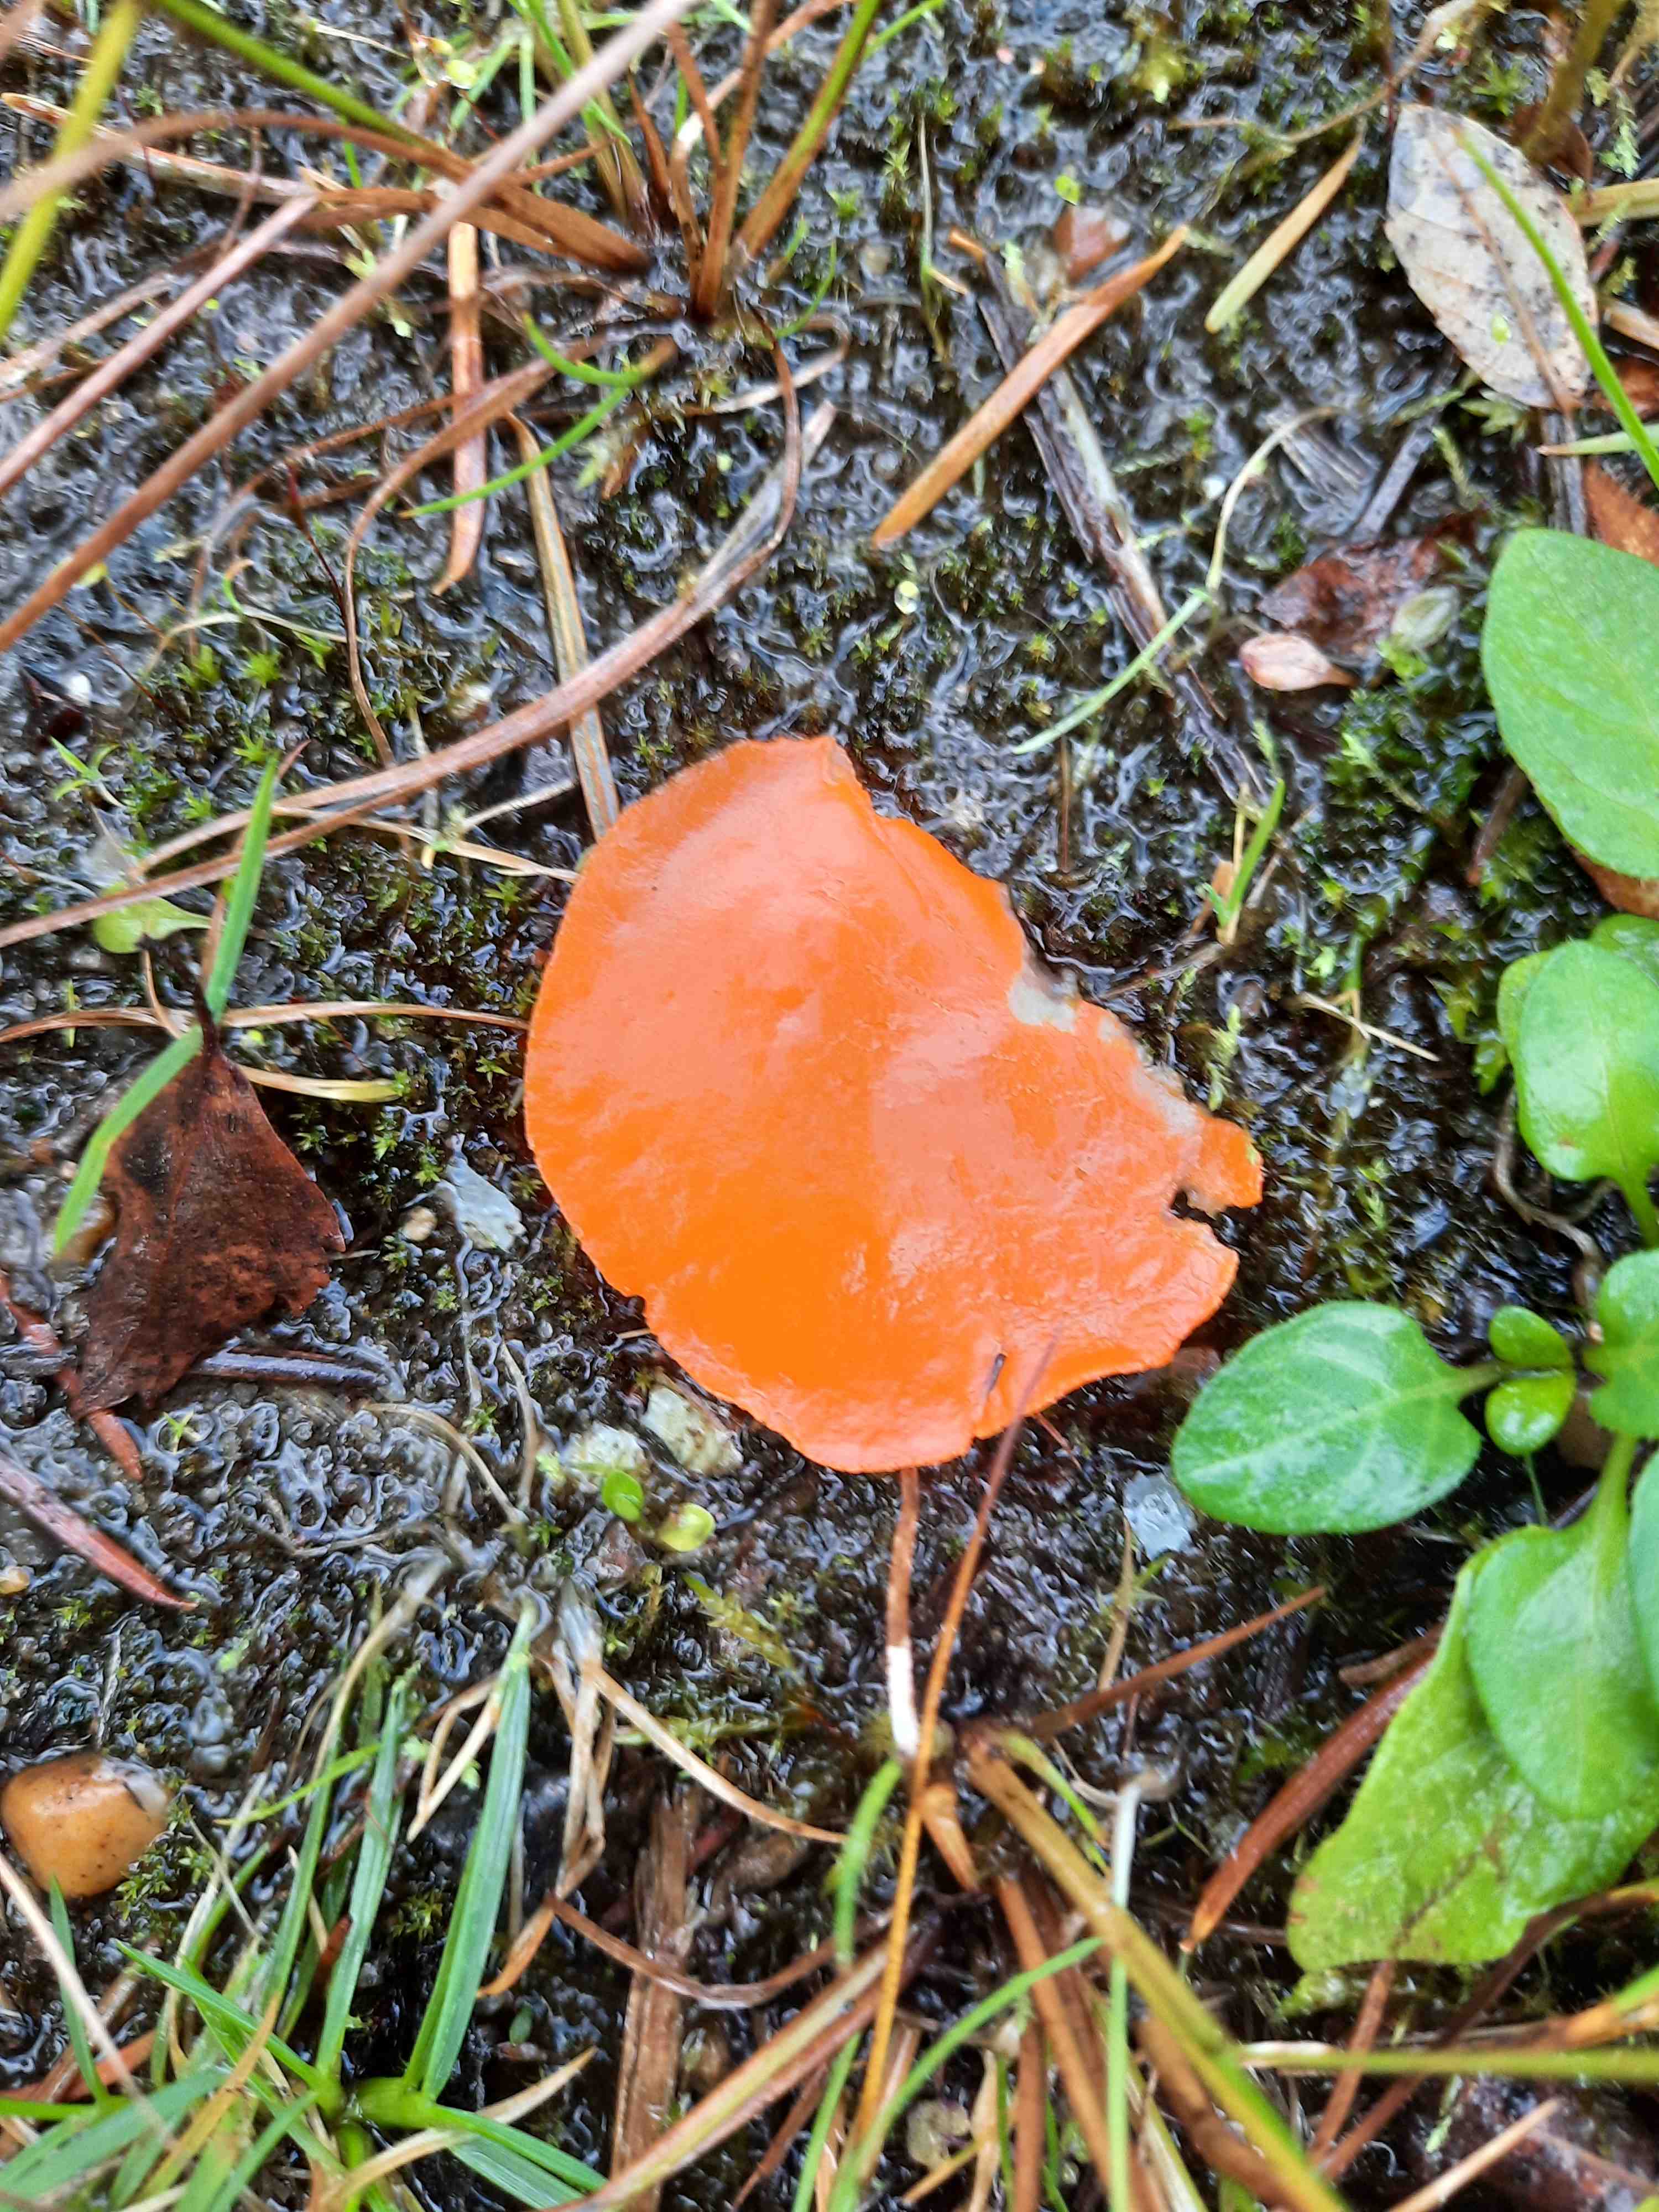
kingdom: Fungi
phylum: Ascomycota
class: Pezizomycetes
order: Pezizales
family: Pyronemataceae
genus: Aleuria
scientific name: Aleuria aurantia
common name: almindelig orangebæger
